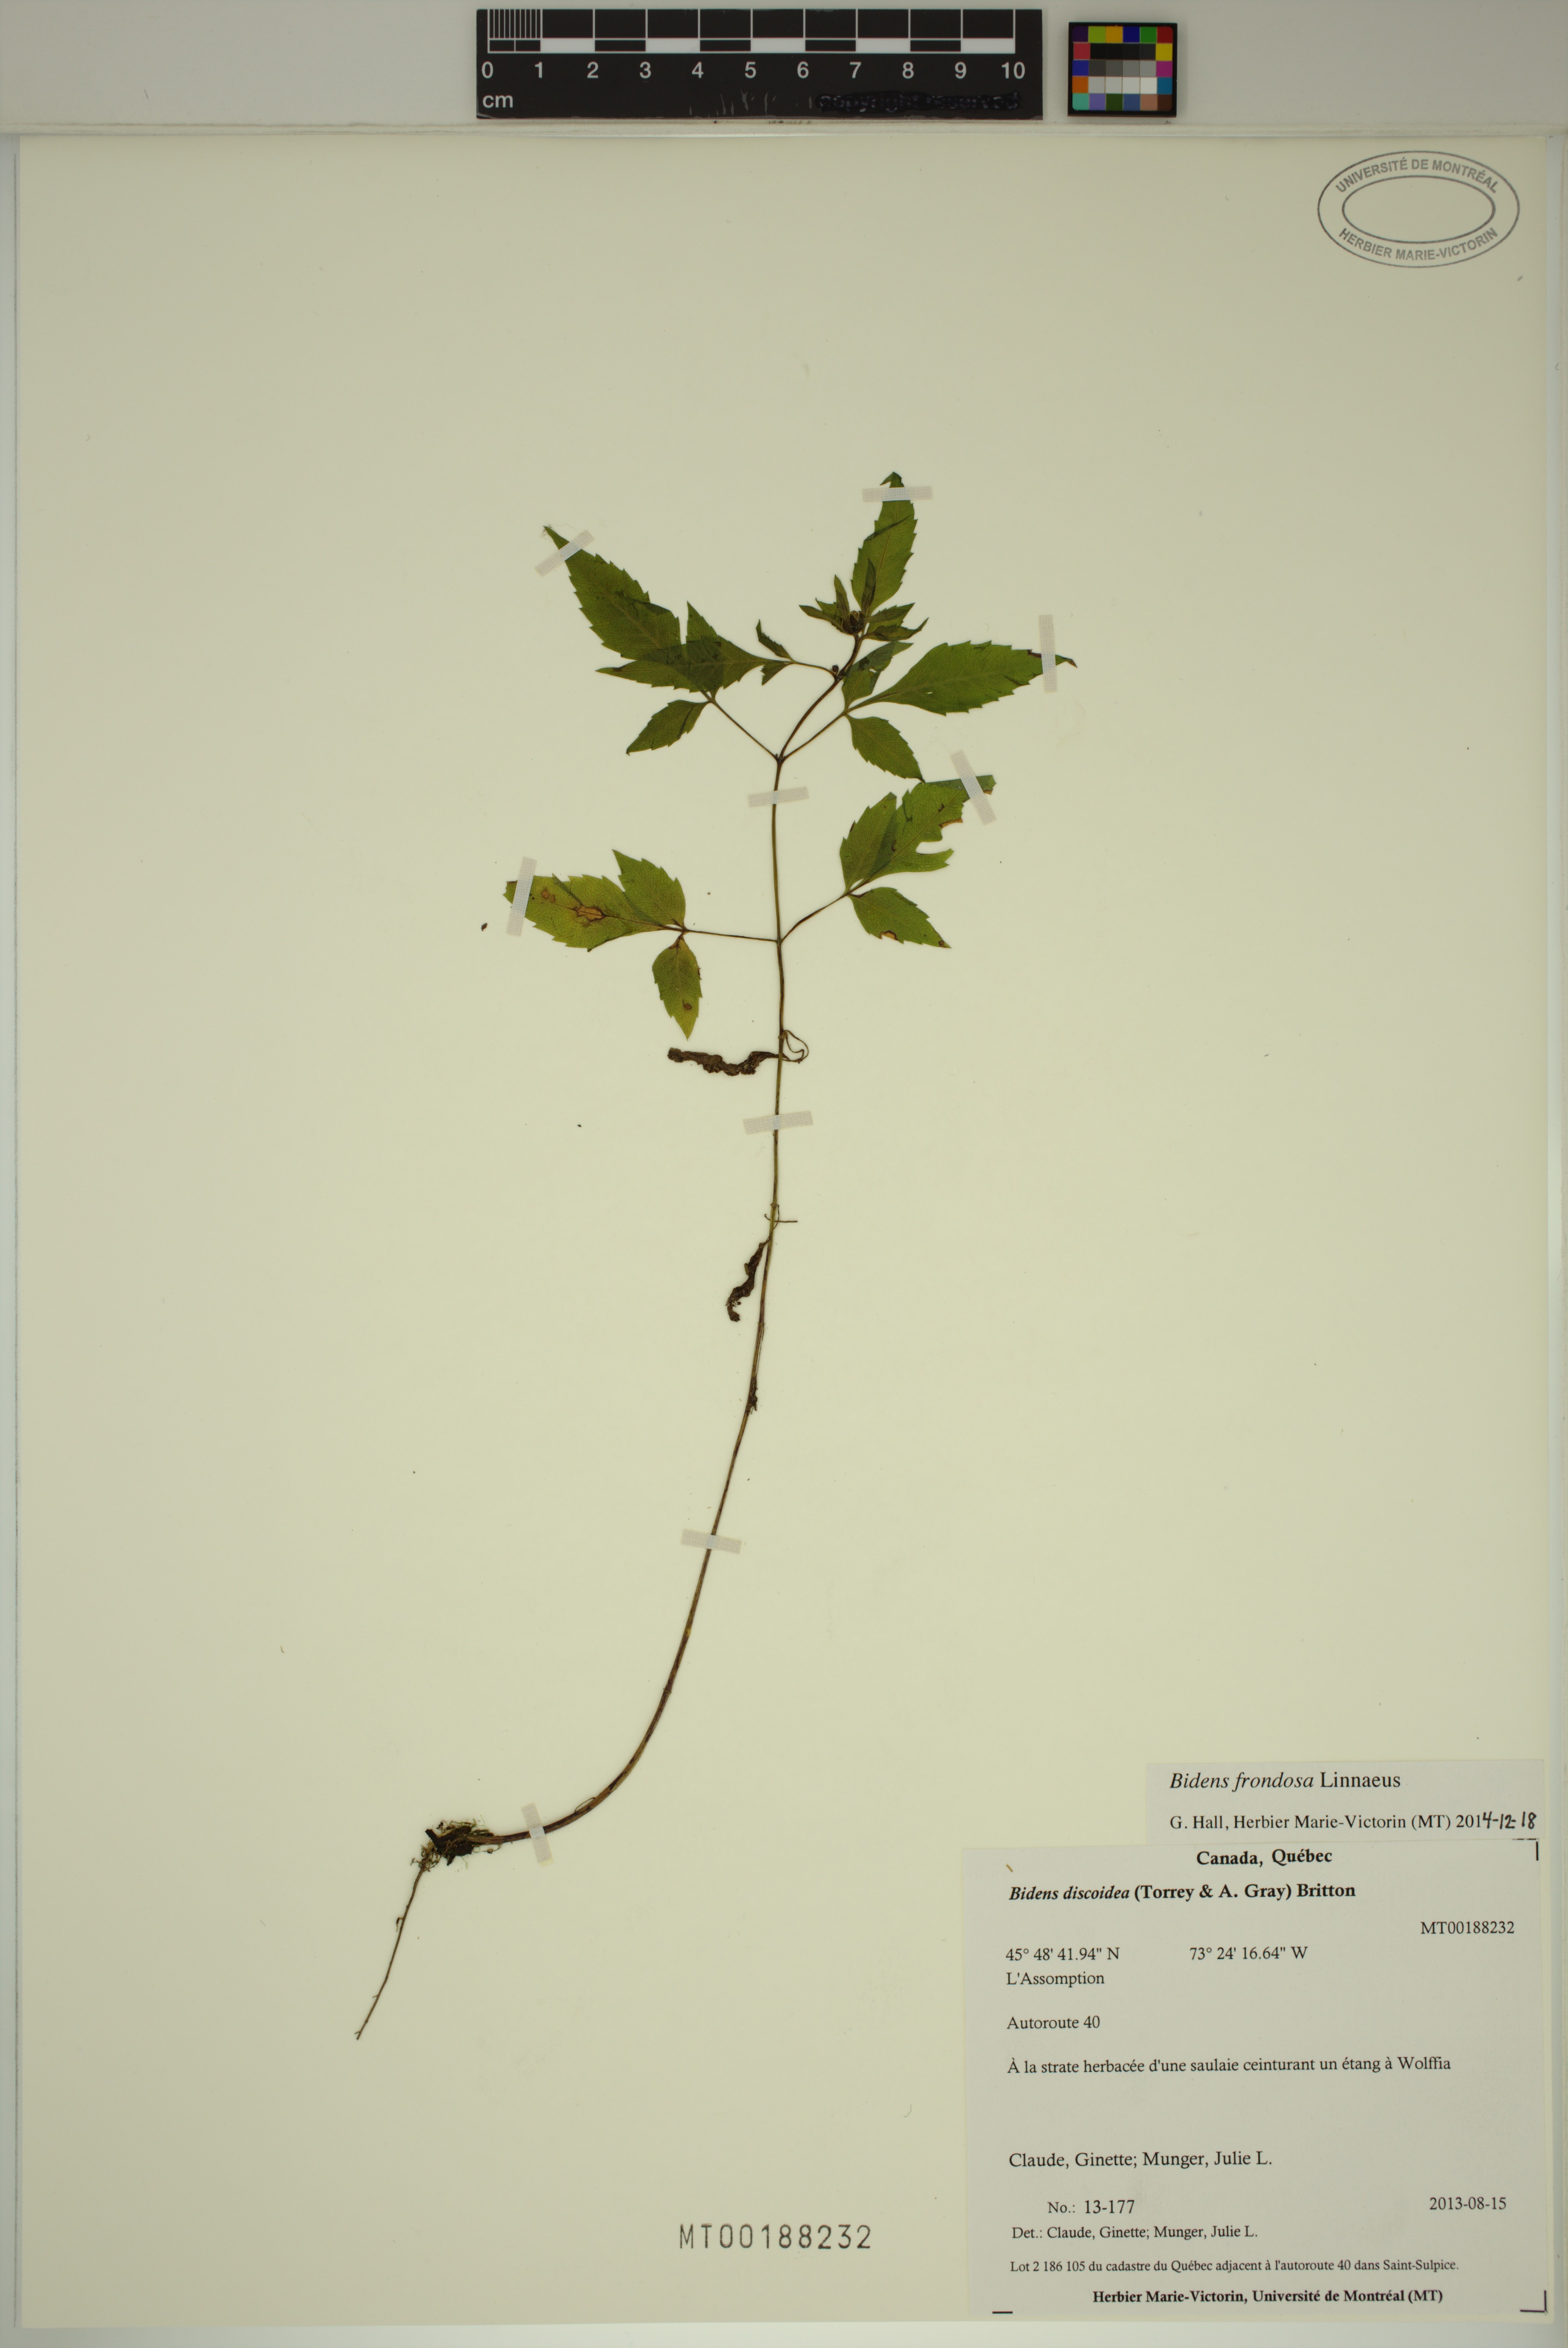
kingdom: Plantae
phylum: Tracheophyta
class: Magnoliopsida
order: Asterales
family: Asteraceae
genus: Bidens
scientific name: Bidens frondosa
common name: Beggarticks
